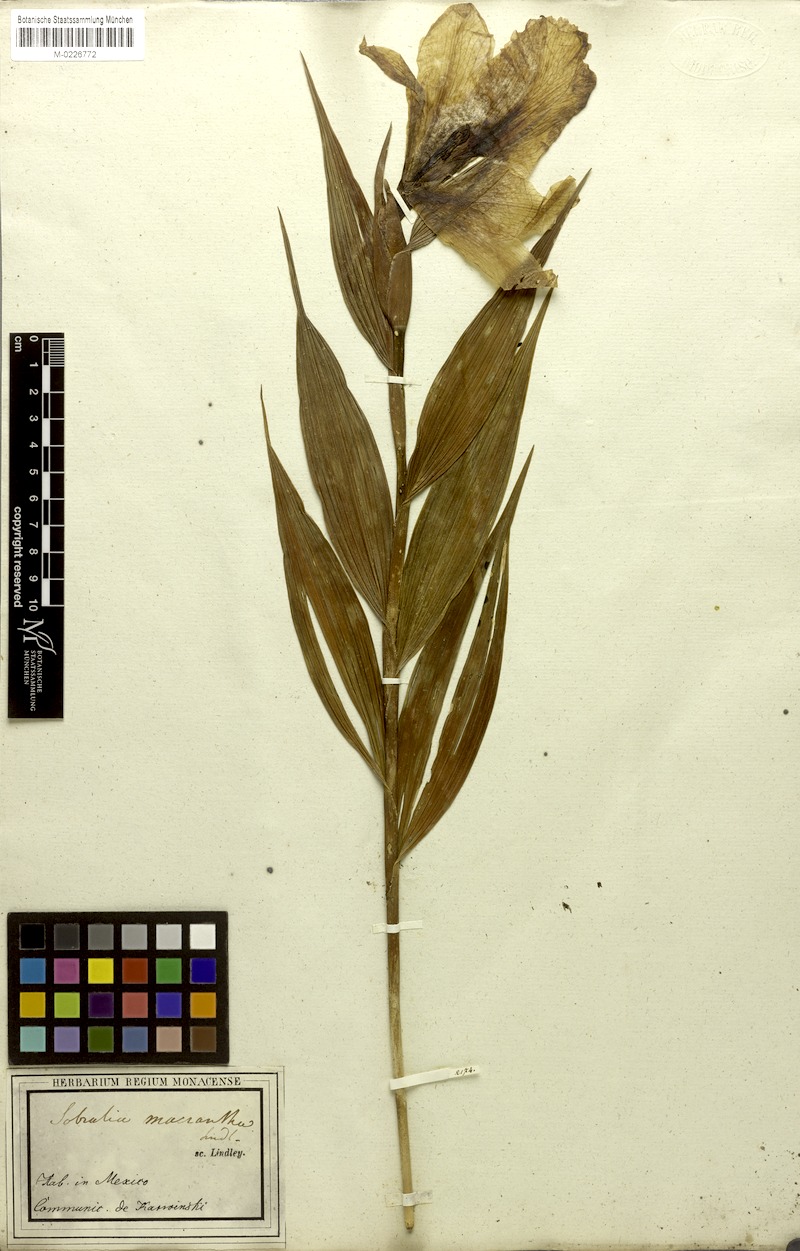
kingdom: Plantae
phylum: Tracheophyta
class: Liliopsida
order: Asparagales
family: Orchidaceae
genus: Sobralia
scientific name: Sobralia macrantha
